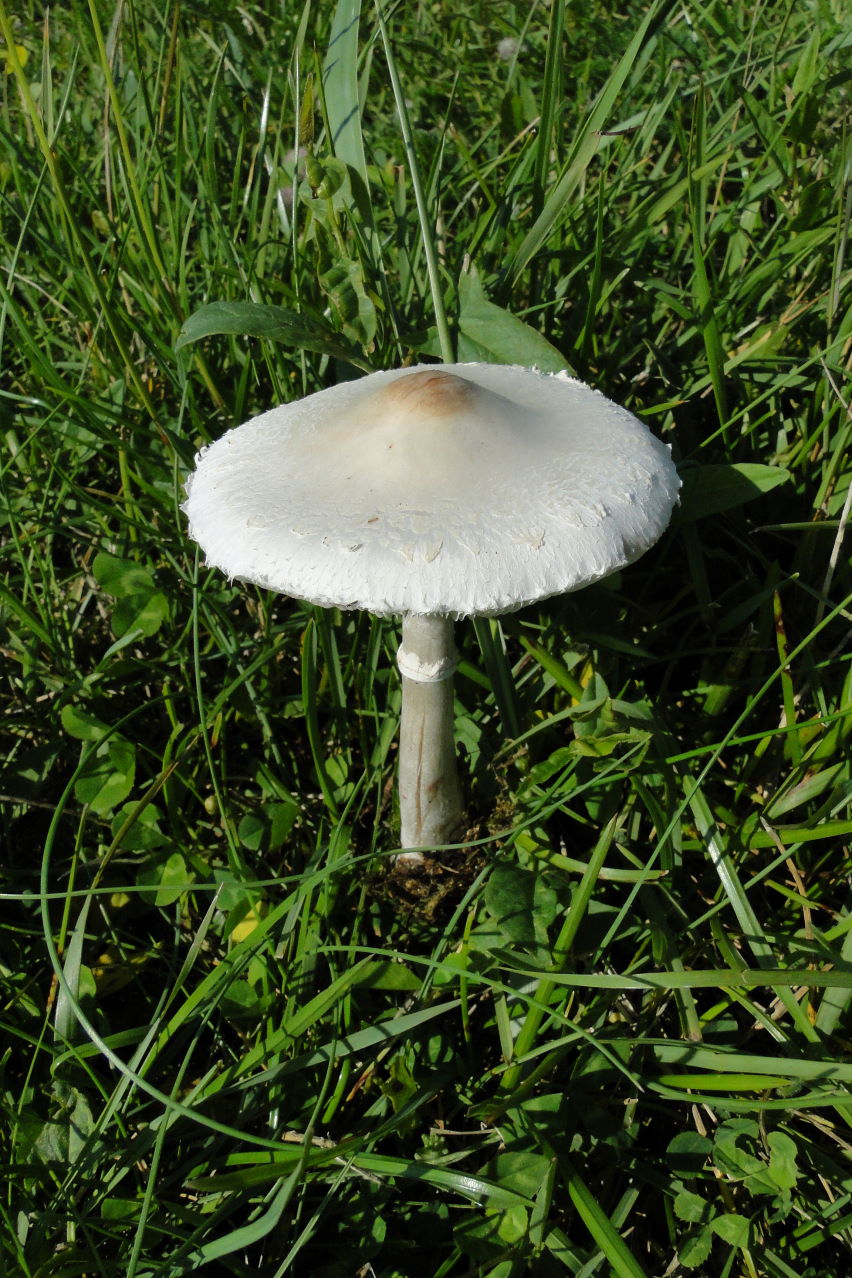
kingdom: Fungi
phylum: Basidiomycota
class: Agaricomycetes
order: Agaricales
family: Agaricaceae
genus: Macrolepiota
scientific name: Macrolepiota excoriata
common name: mark-kæmpeparasolhat
